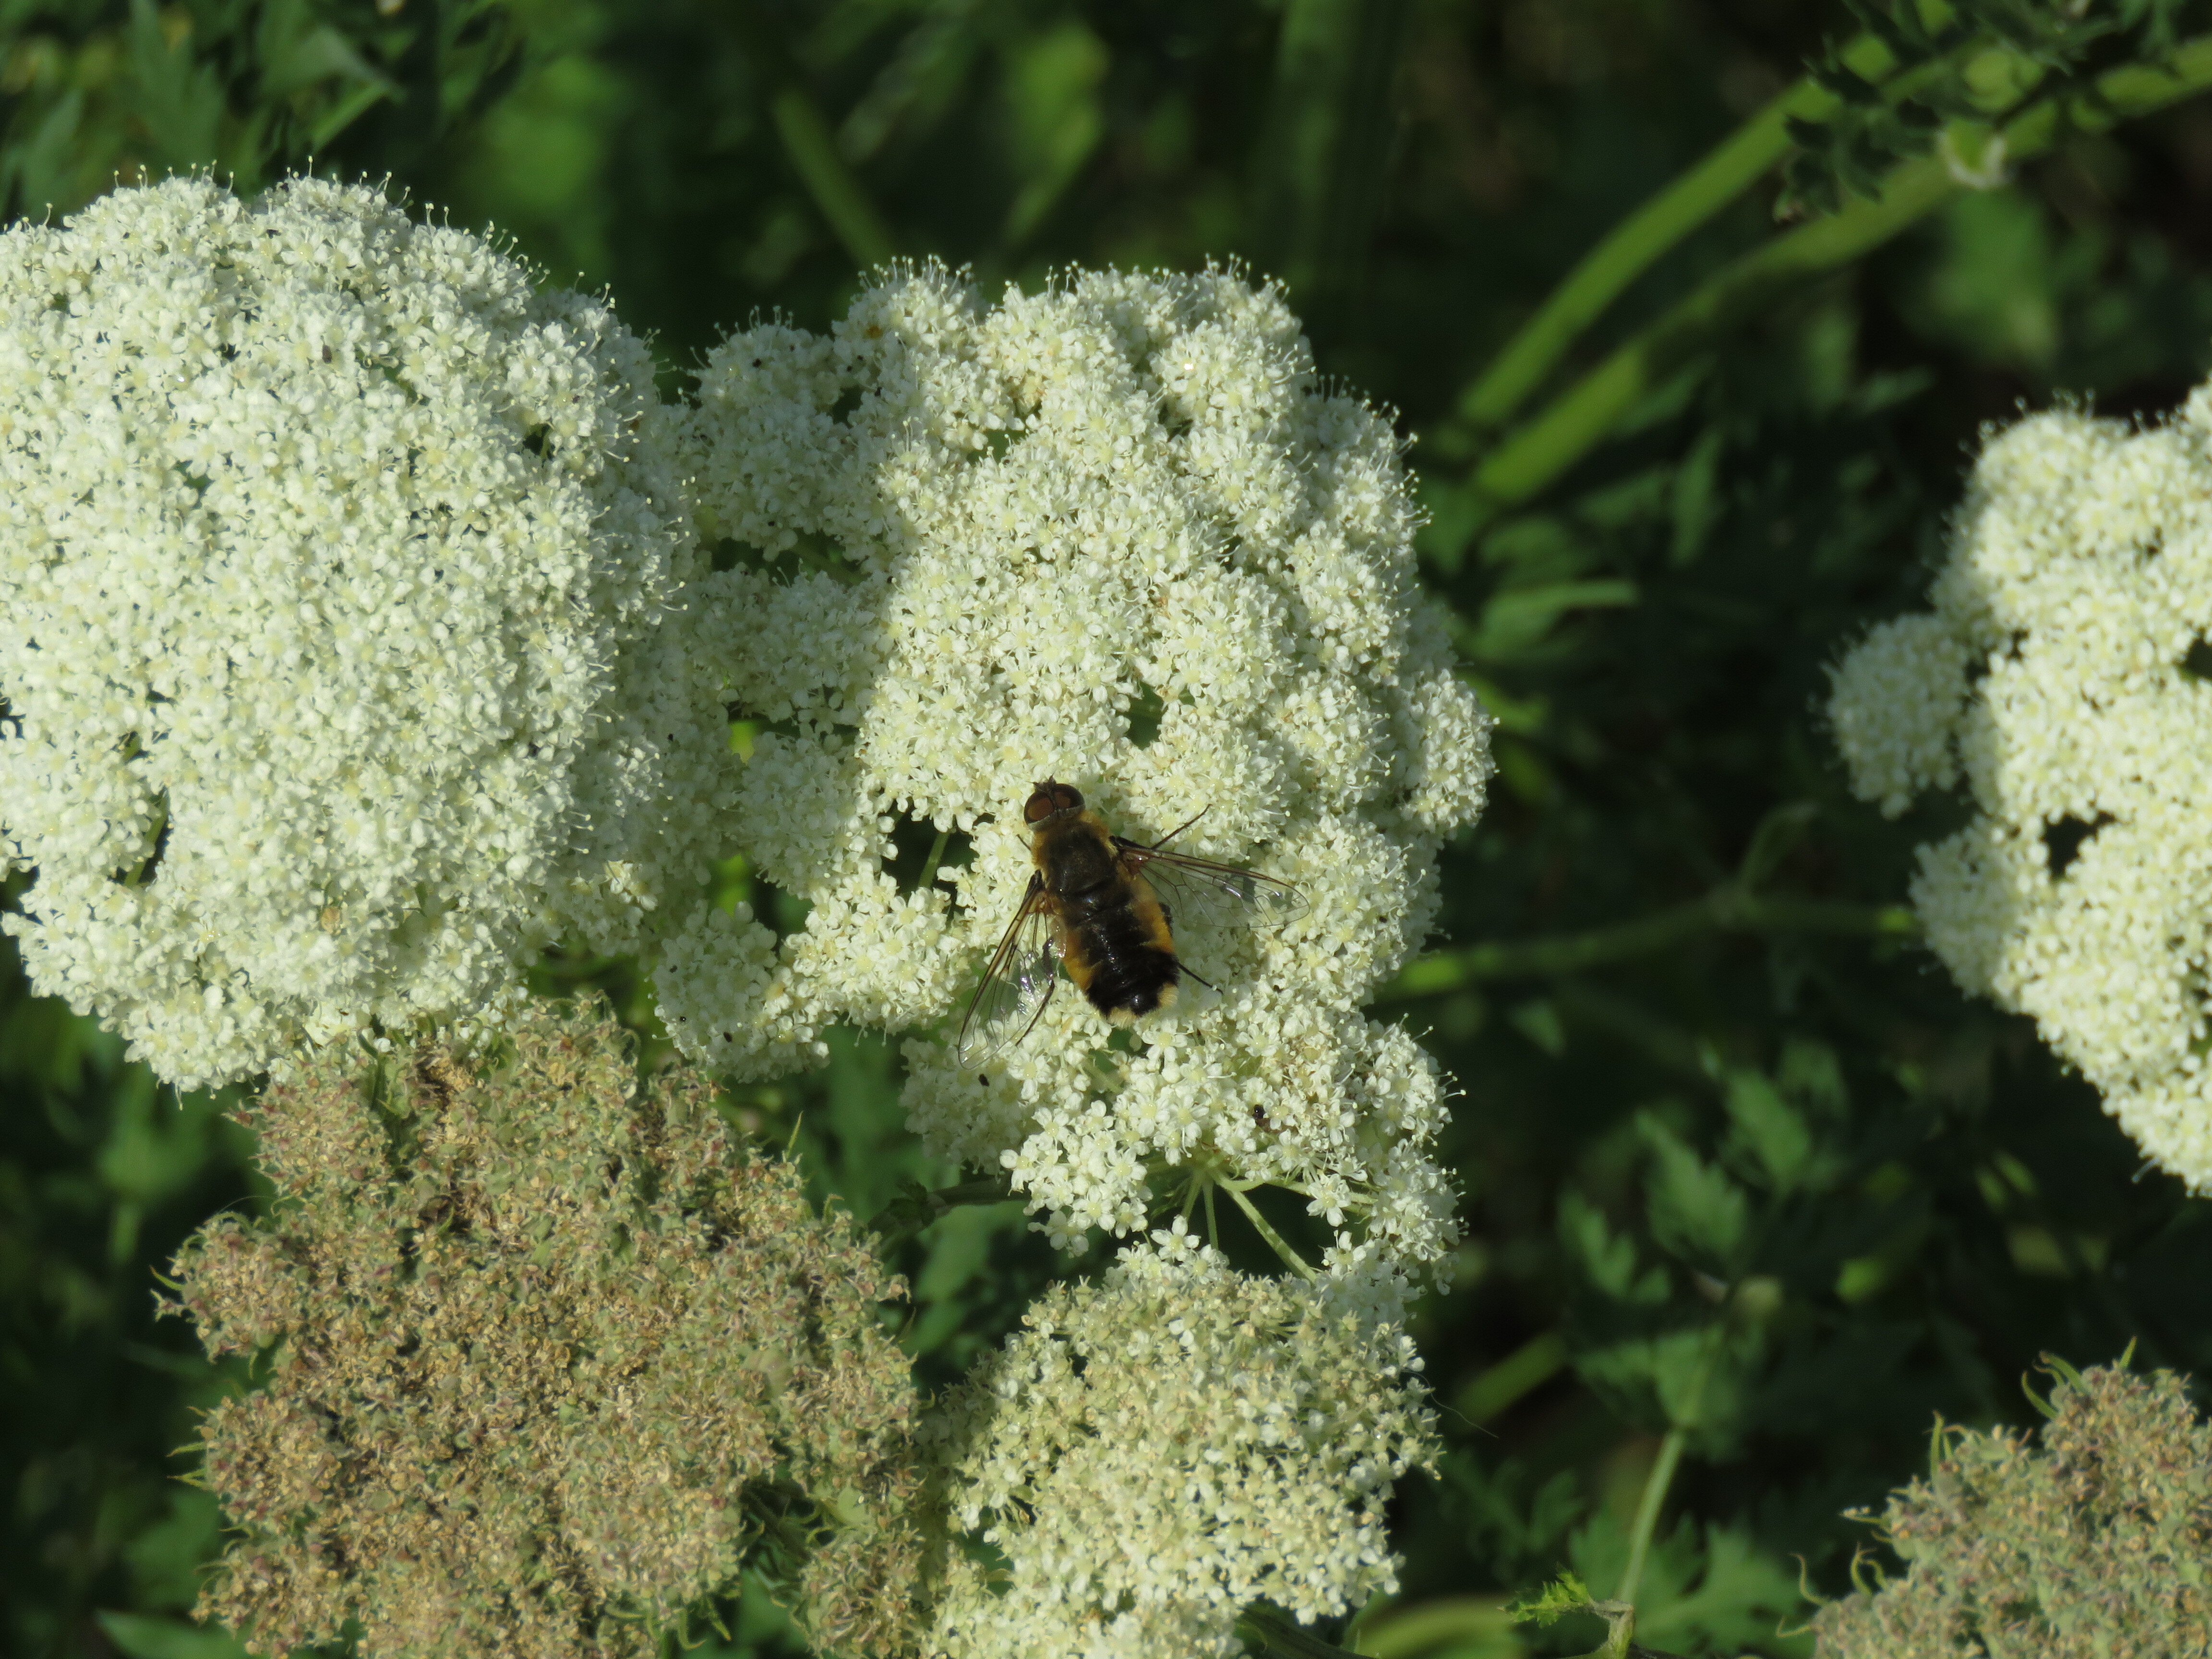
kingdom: Animalia
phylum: Arthropoda
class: Insecta
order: Diptera
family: Bombyliidae
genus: Villa
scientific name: Villa hottentotta
